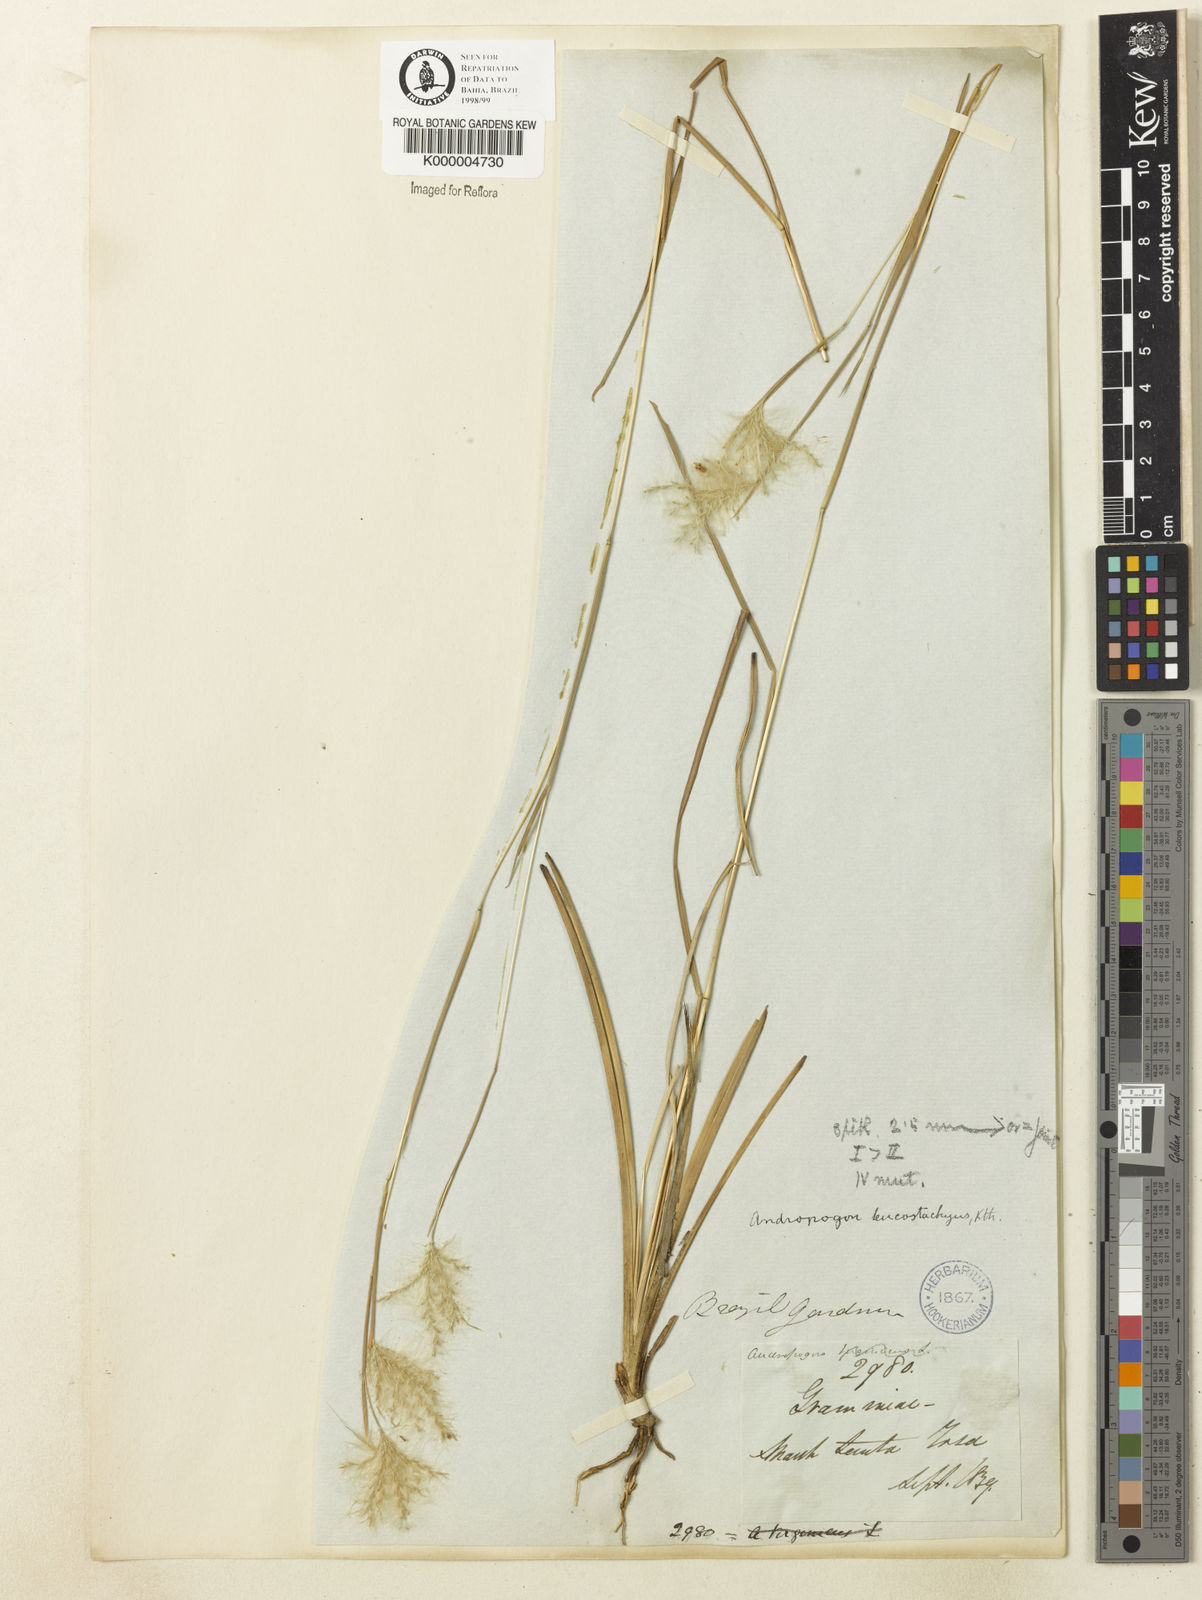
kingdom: Plantae
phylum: Tracheophyta
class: Liliopsida
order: Poales
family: Poaceae
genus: Andropogon
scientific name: Andropogon leucostachyus
